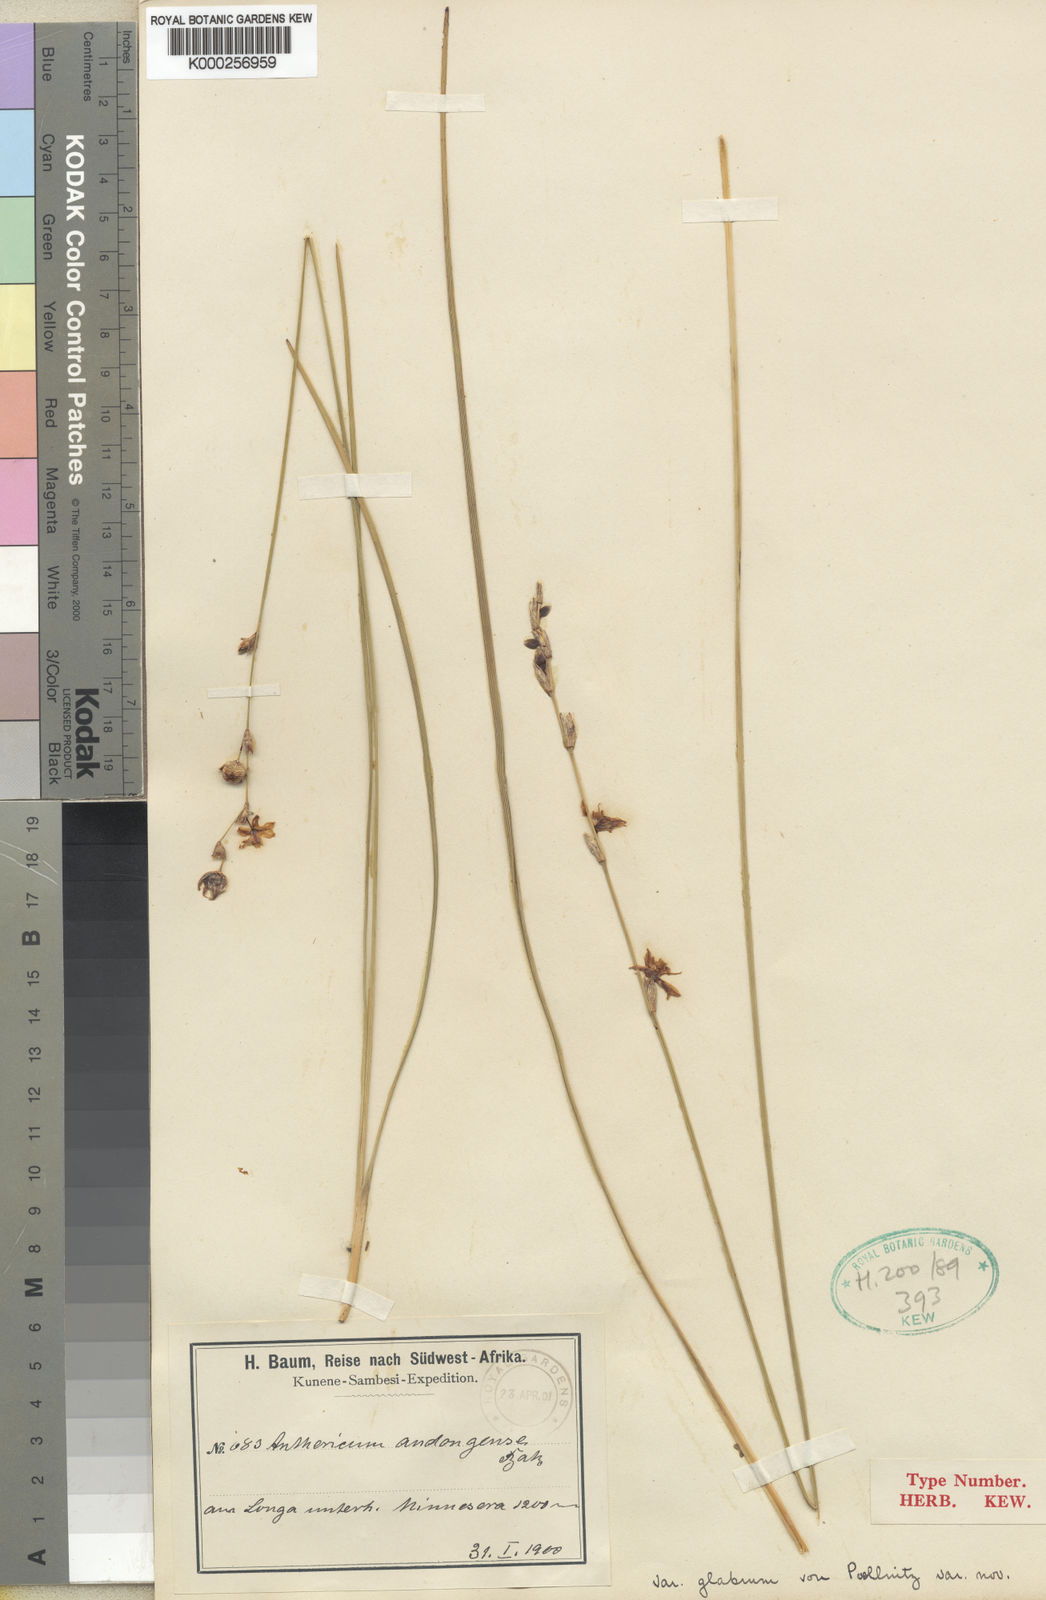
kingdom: Plantae
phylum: Tracheophyta
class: Liliopsida
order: Asparagales
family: Asparagaceae
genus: Chlorophytum
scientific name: Chlorophytum sphagnicola
